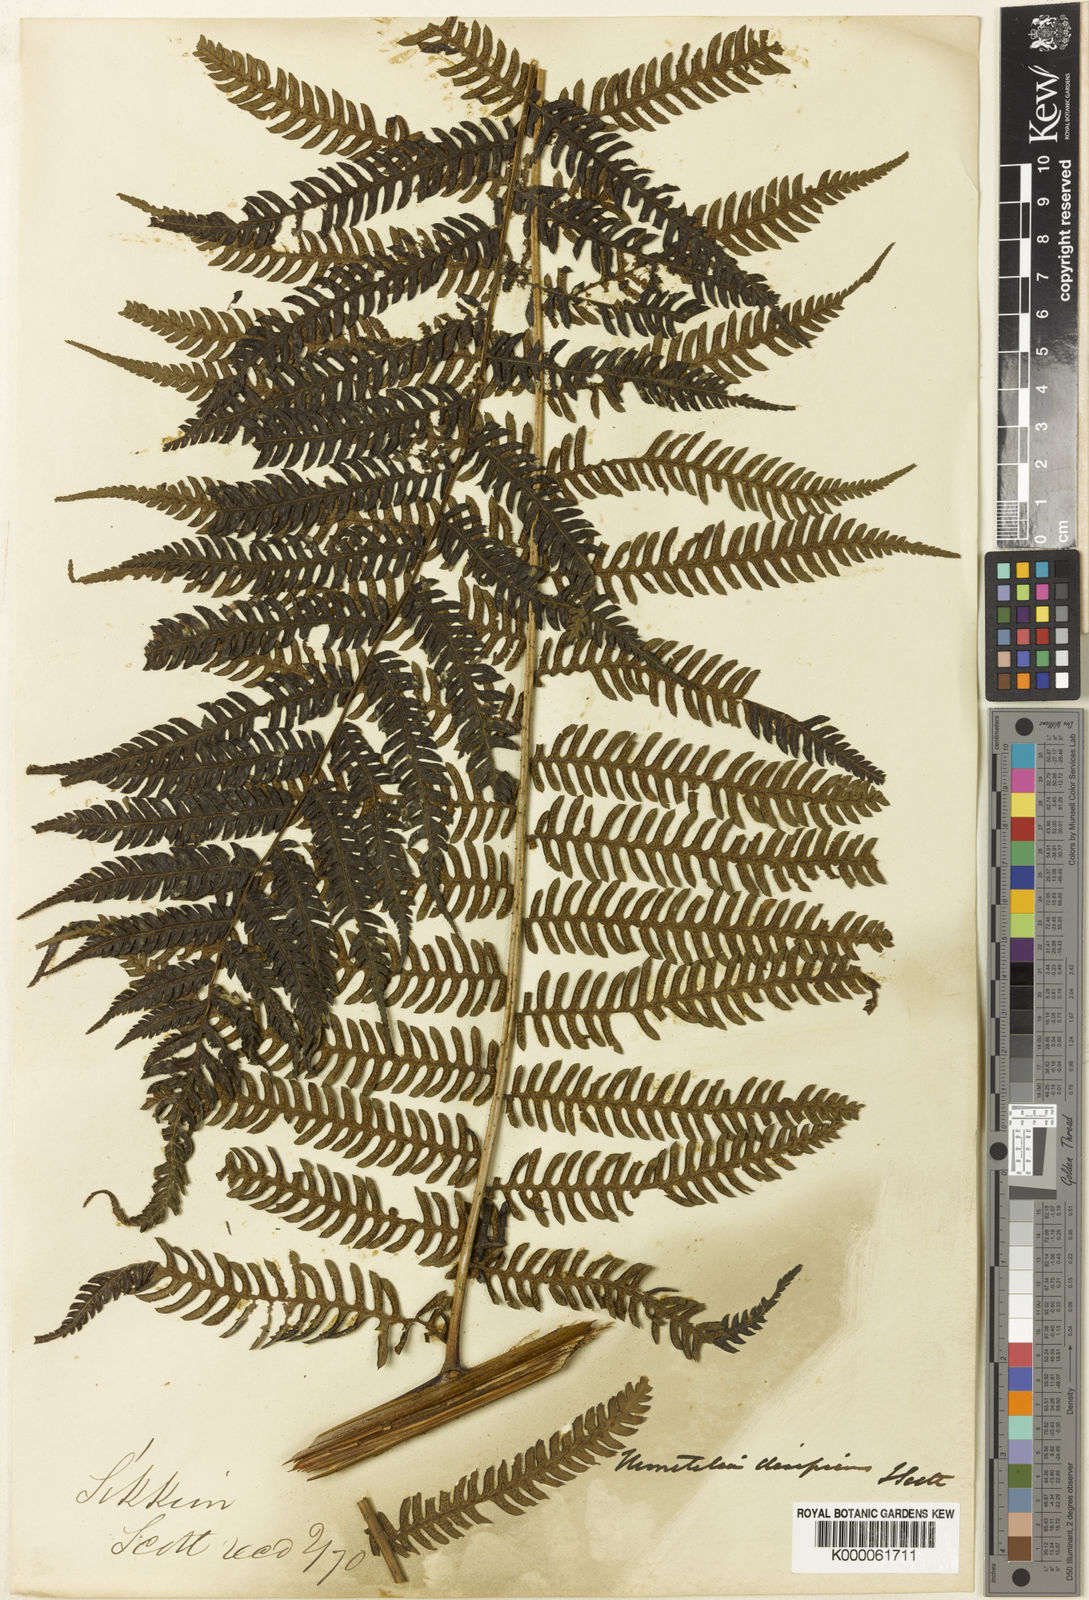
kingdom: Plantae
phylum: Tracheophyta
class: Polypodiopsida
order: Cyatheales
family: Cyatheaceae
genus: Cyathea
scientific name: Cyathea
